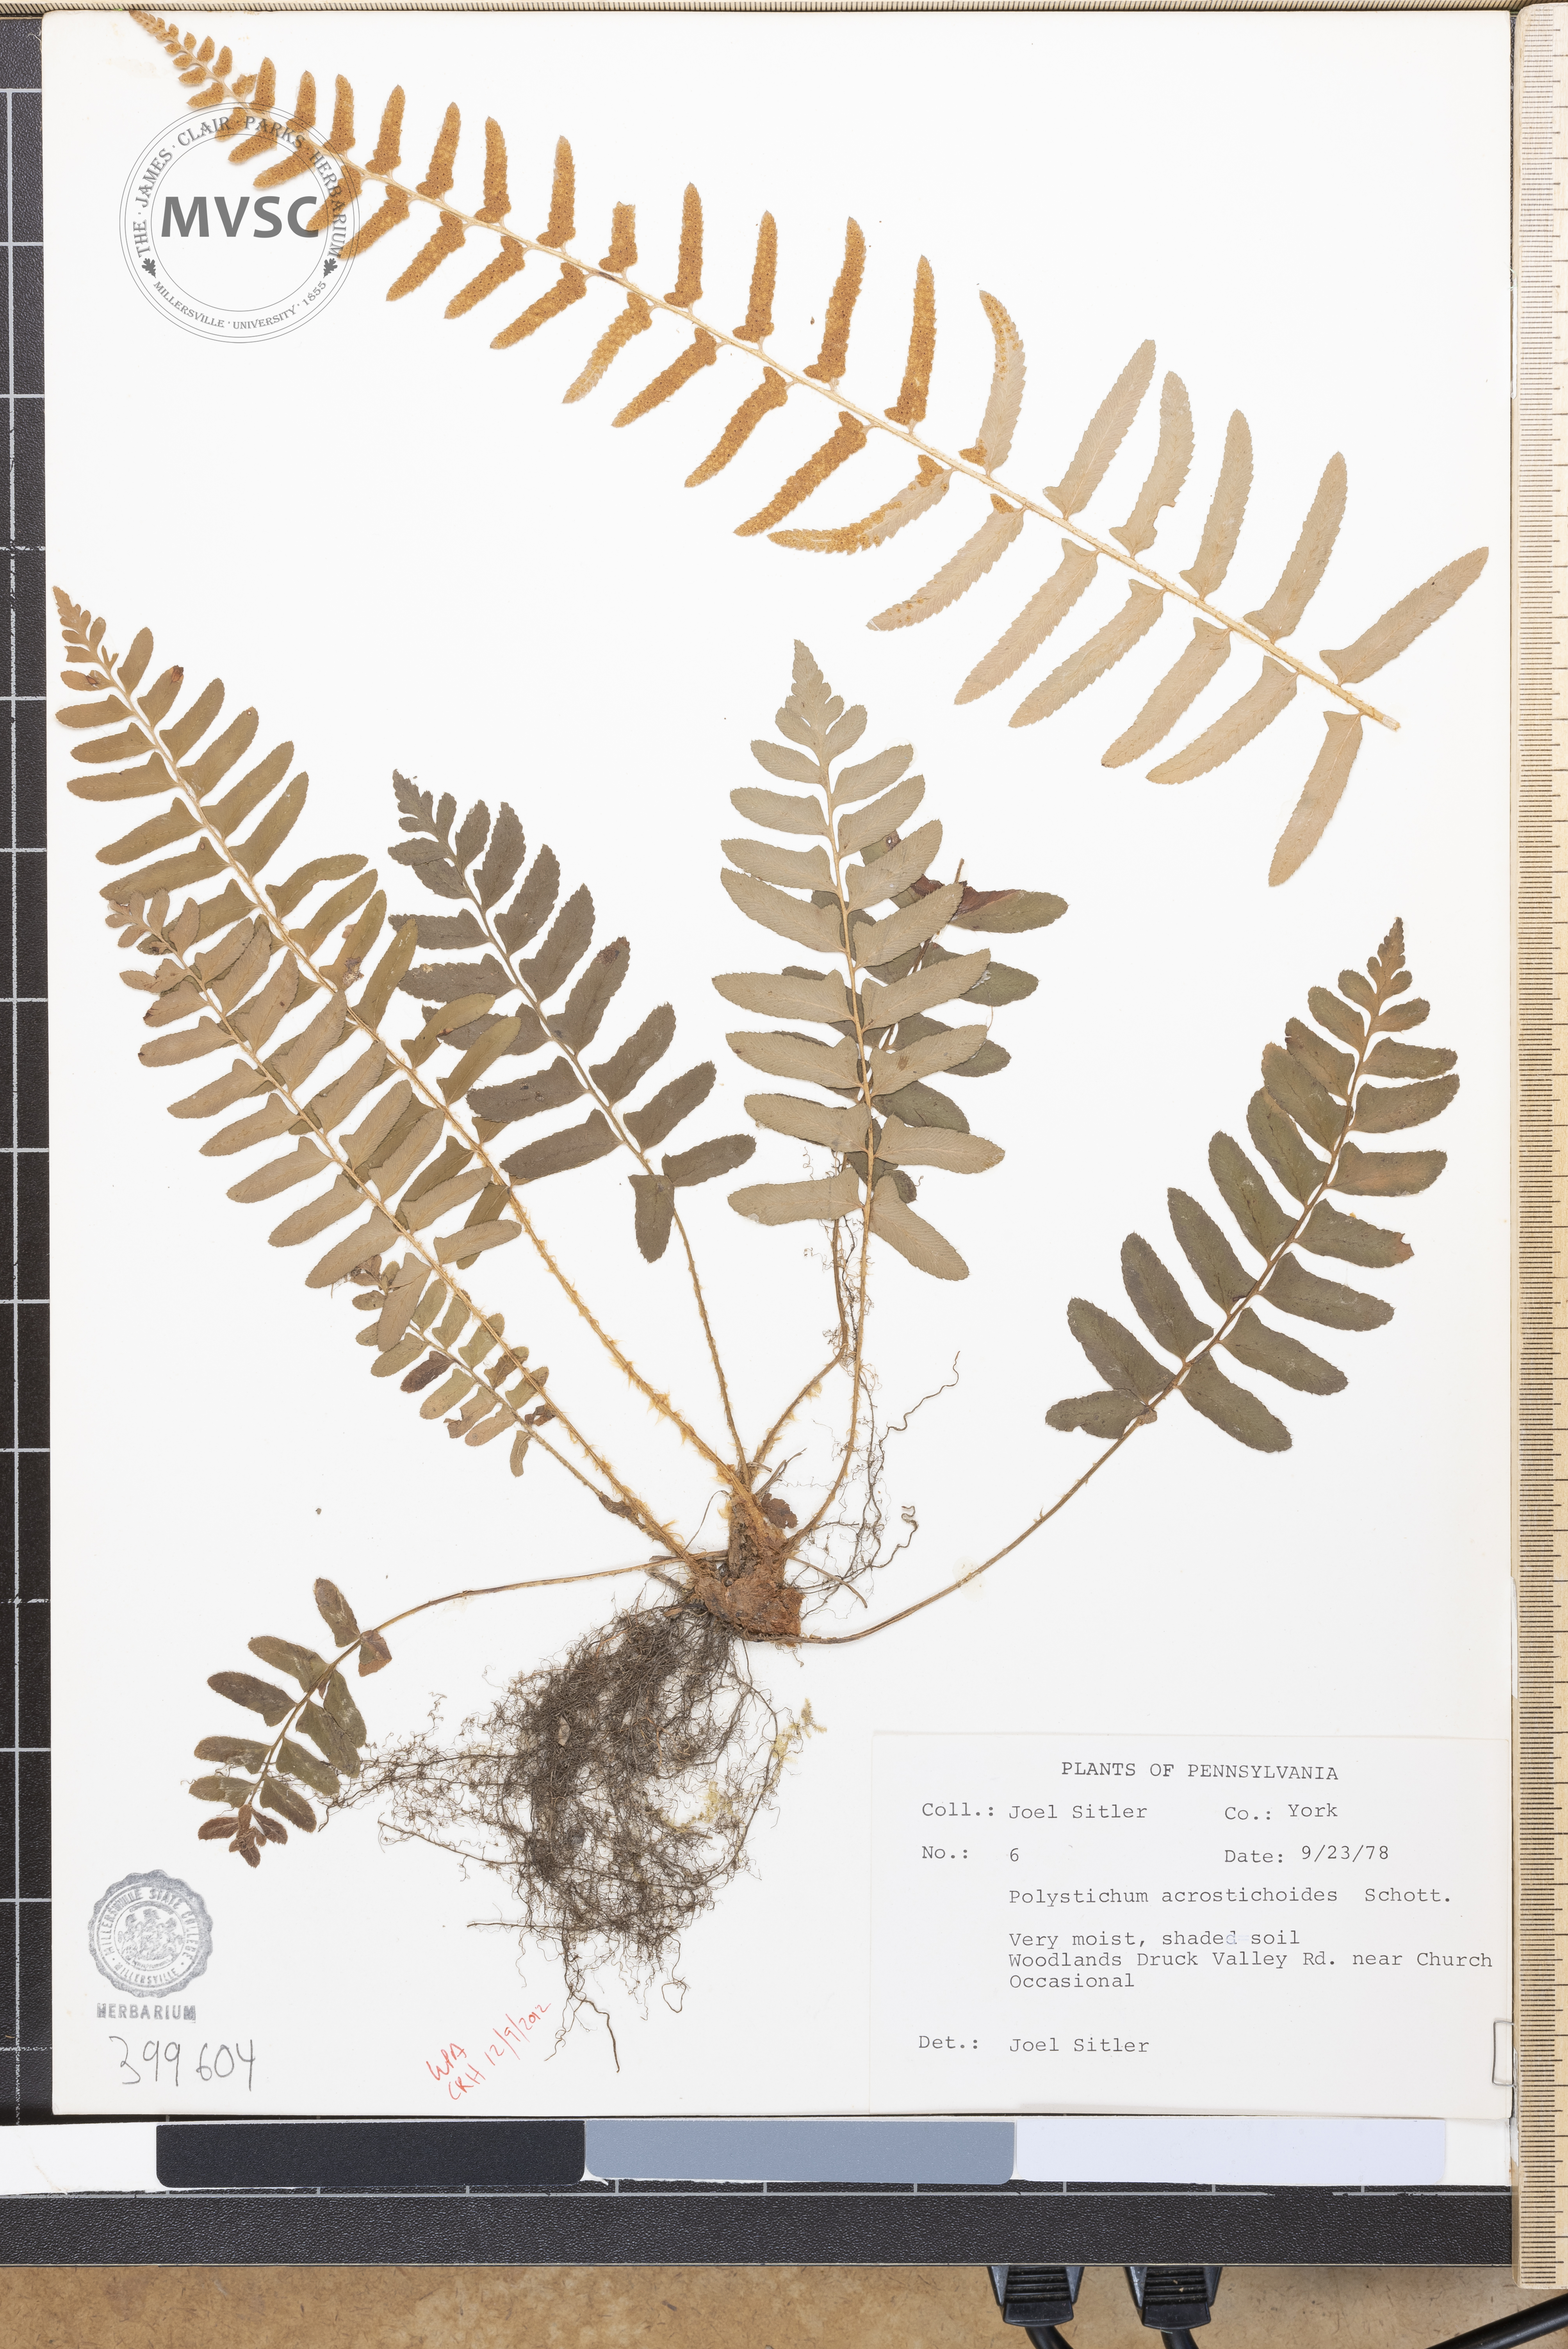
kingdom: Plantae
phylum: Tracheophyta
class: Polypodiopsida
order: Polypodiales
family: Dryopteridaceae
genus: Polystichum
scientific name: Polystichum acrostichoides
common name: Christmas fern
